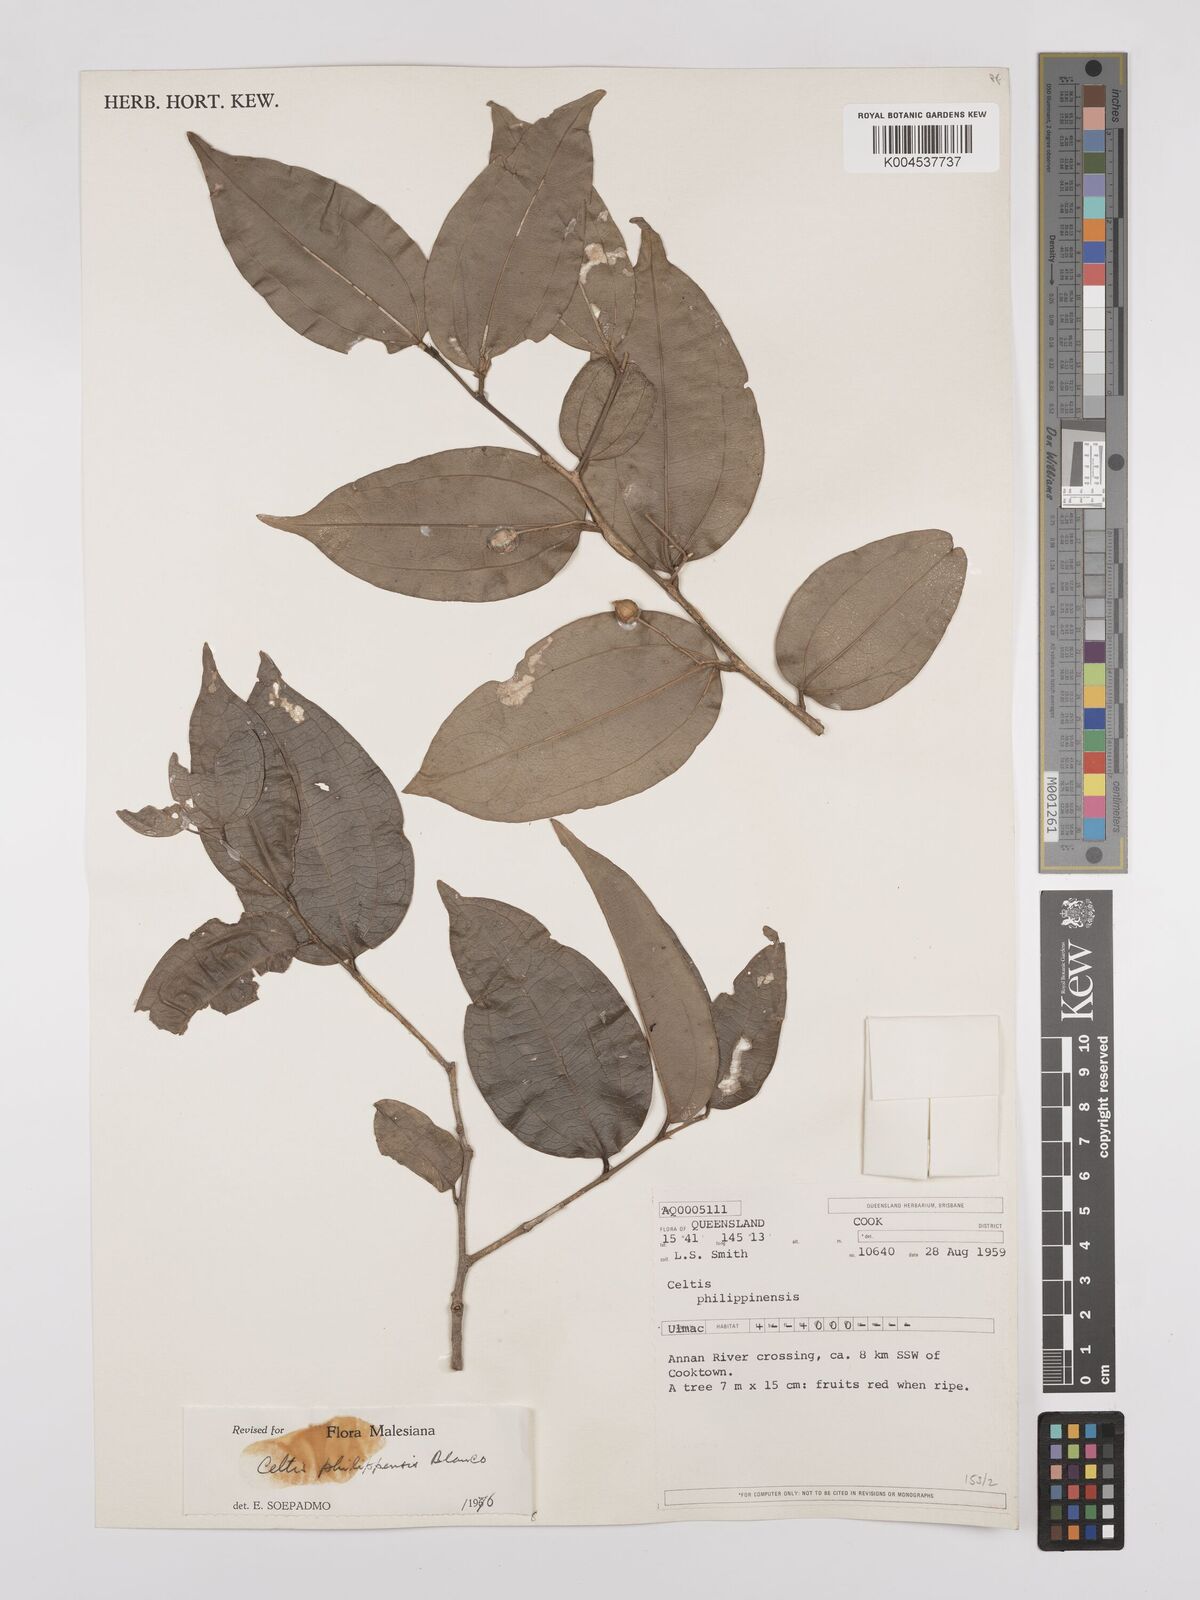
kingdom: Plantae
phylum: Tracheophyta
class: Magnoliopsida
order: Rosales
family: Cannabaceae
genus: Celtis
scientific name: Celtis philippensis
